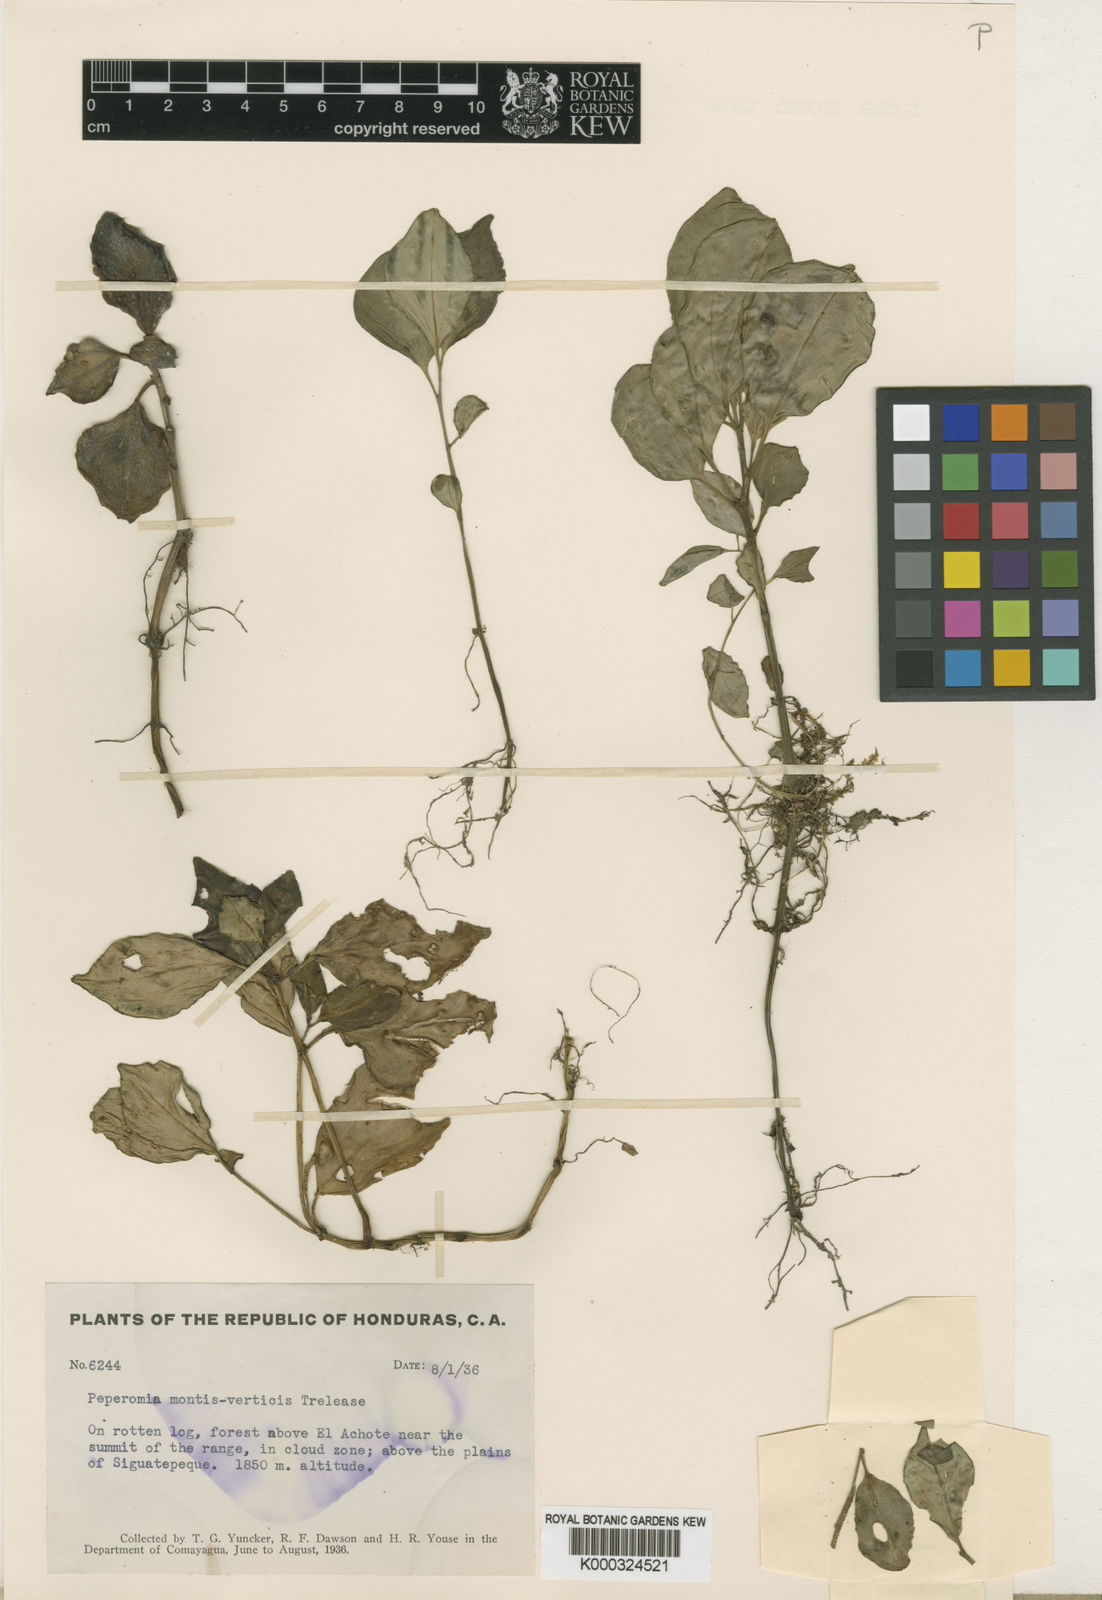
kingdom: Plantae
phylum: Tracheophyta
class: Magnoliopsida
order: Piperales
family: Piperaceae
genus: Peperomia
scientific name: Peperomia san-joseana
